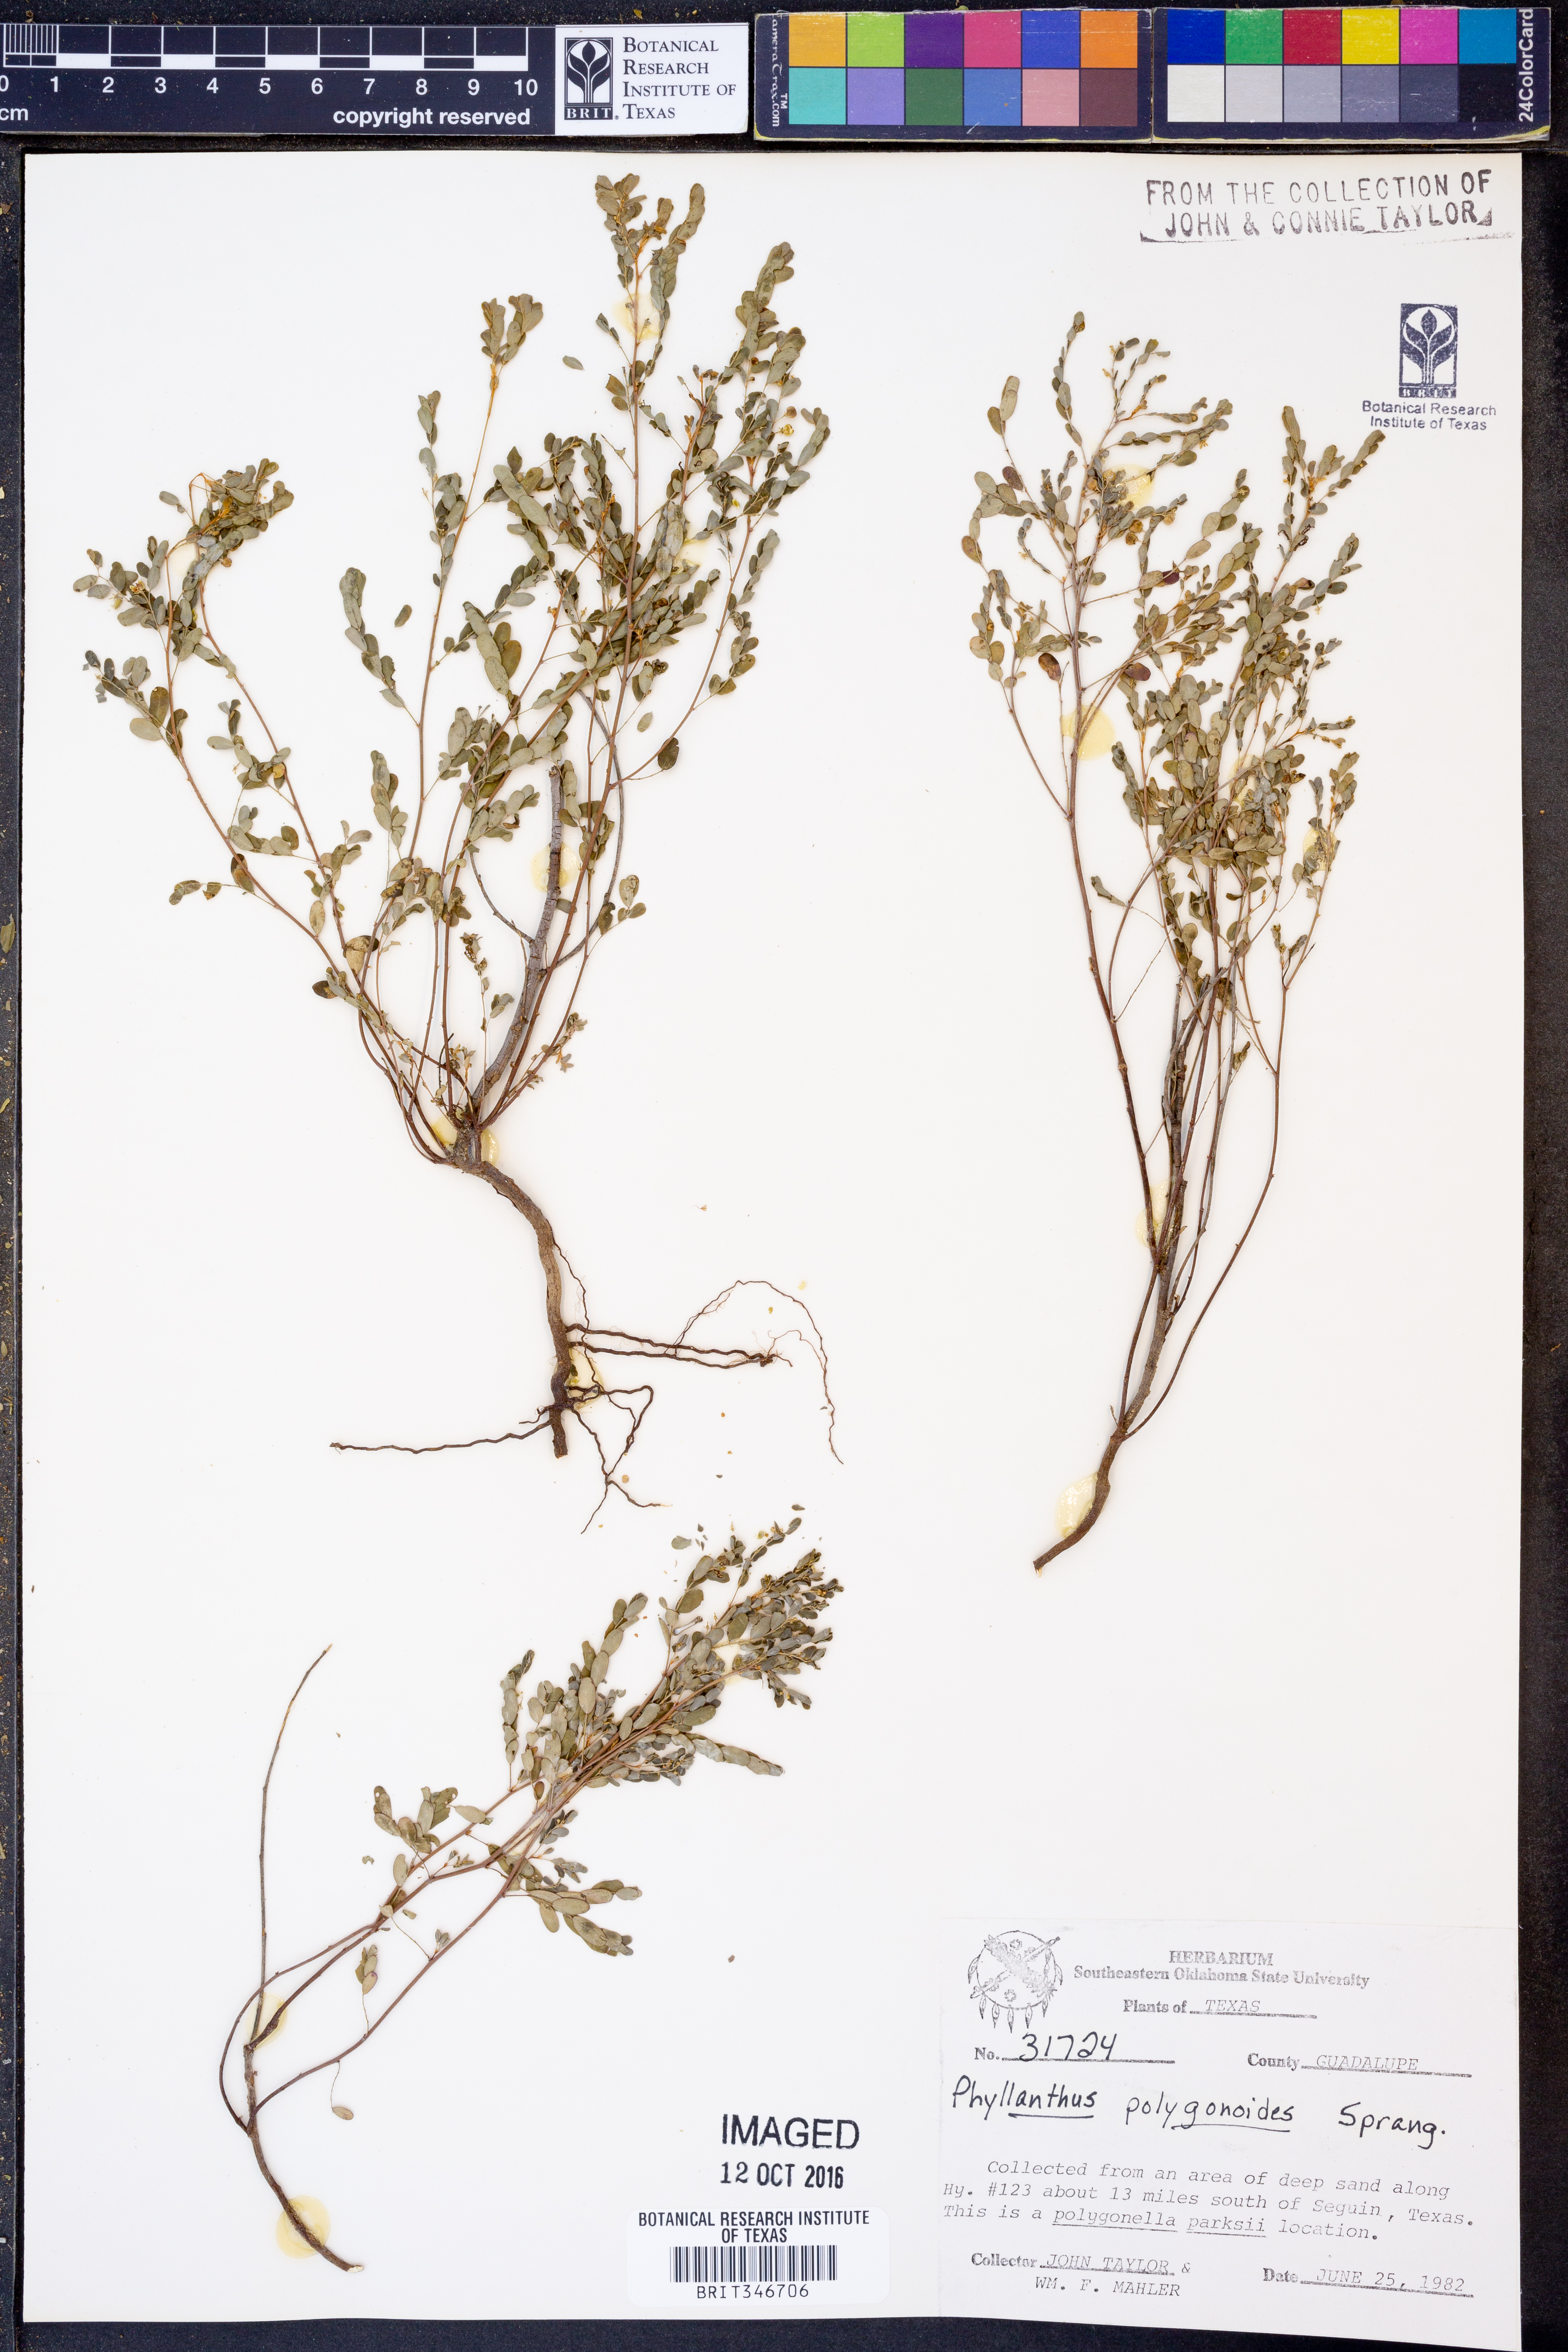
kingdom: Plantae
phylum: Tracheophyta
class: Magnoliopsida
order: Malpighiales
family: Phyllanthaceae
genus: Phyllanthus
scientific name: Phyllanthus polygonoides
